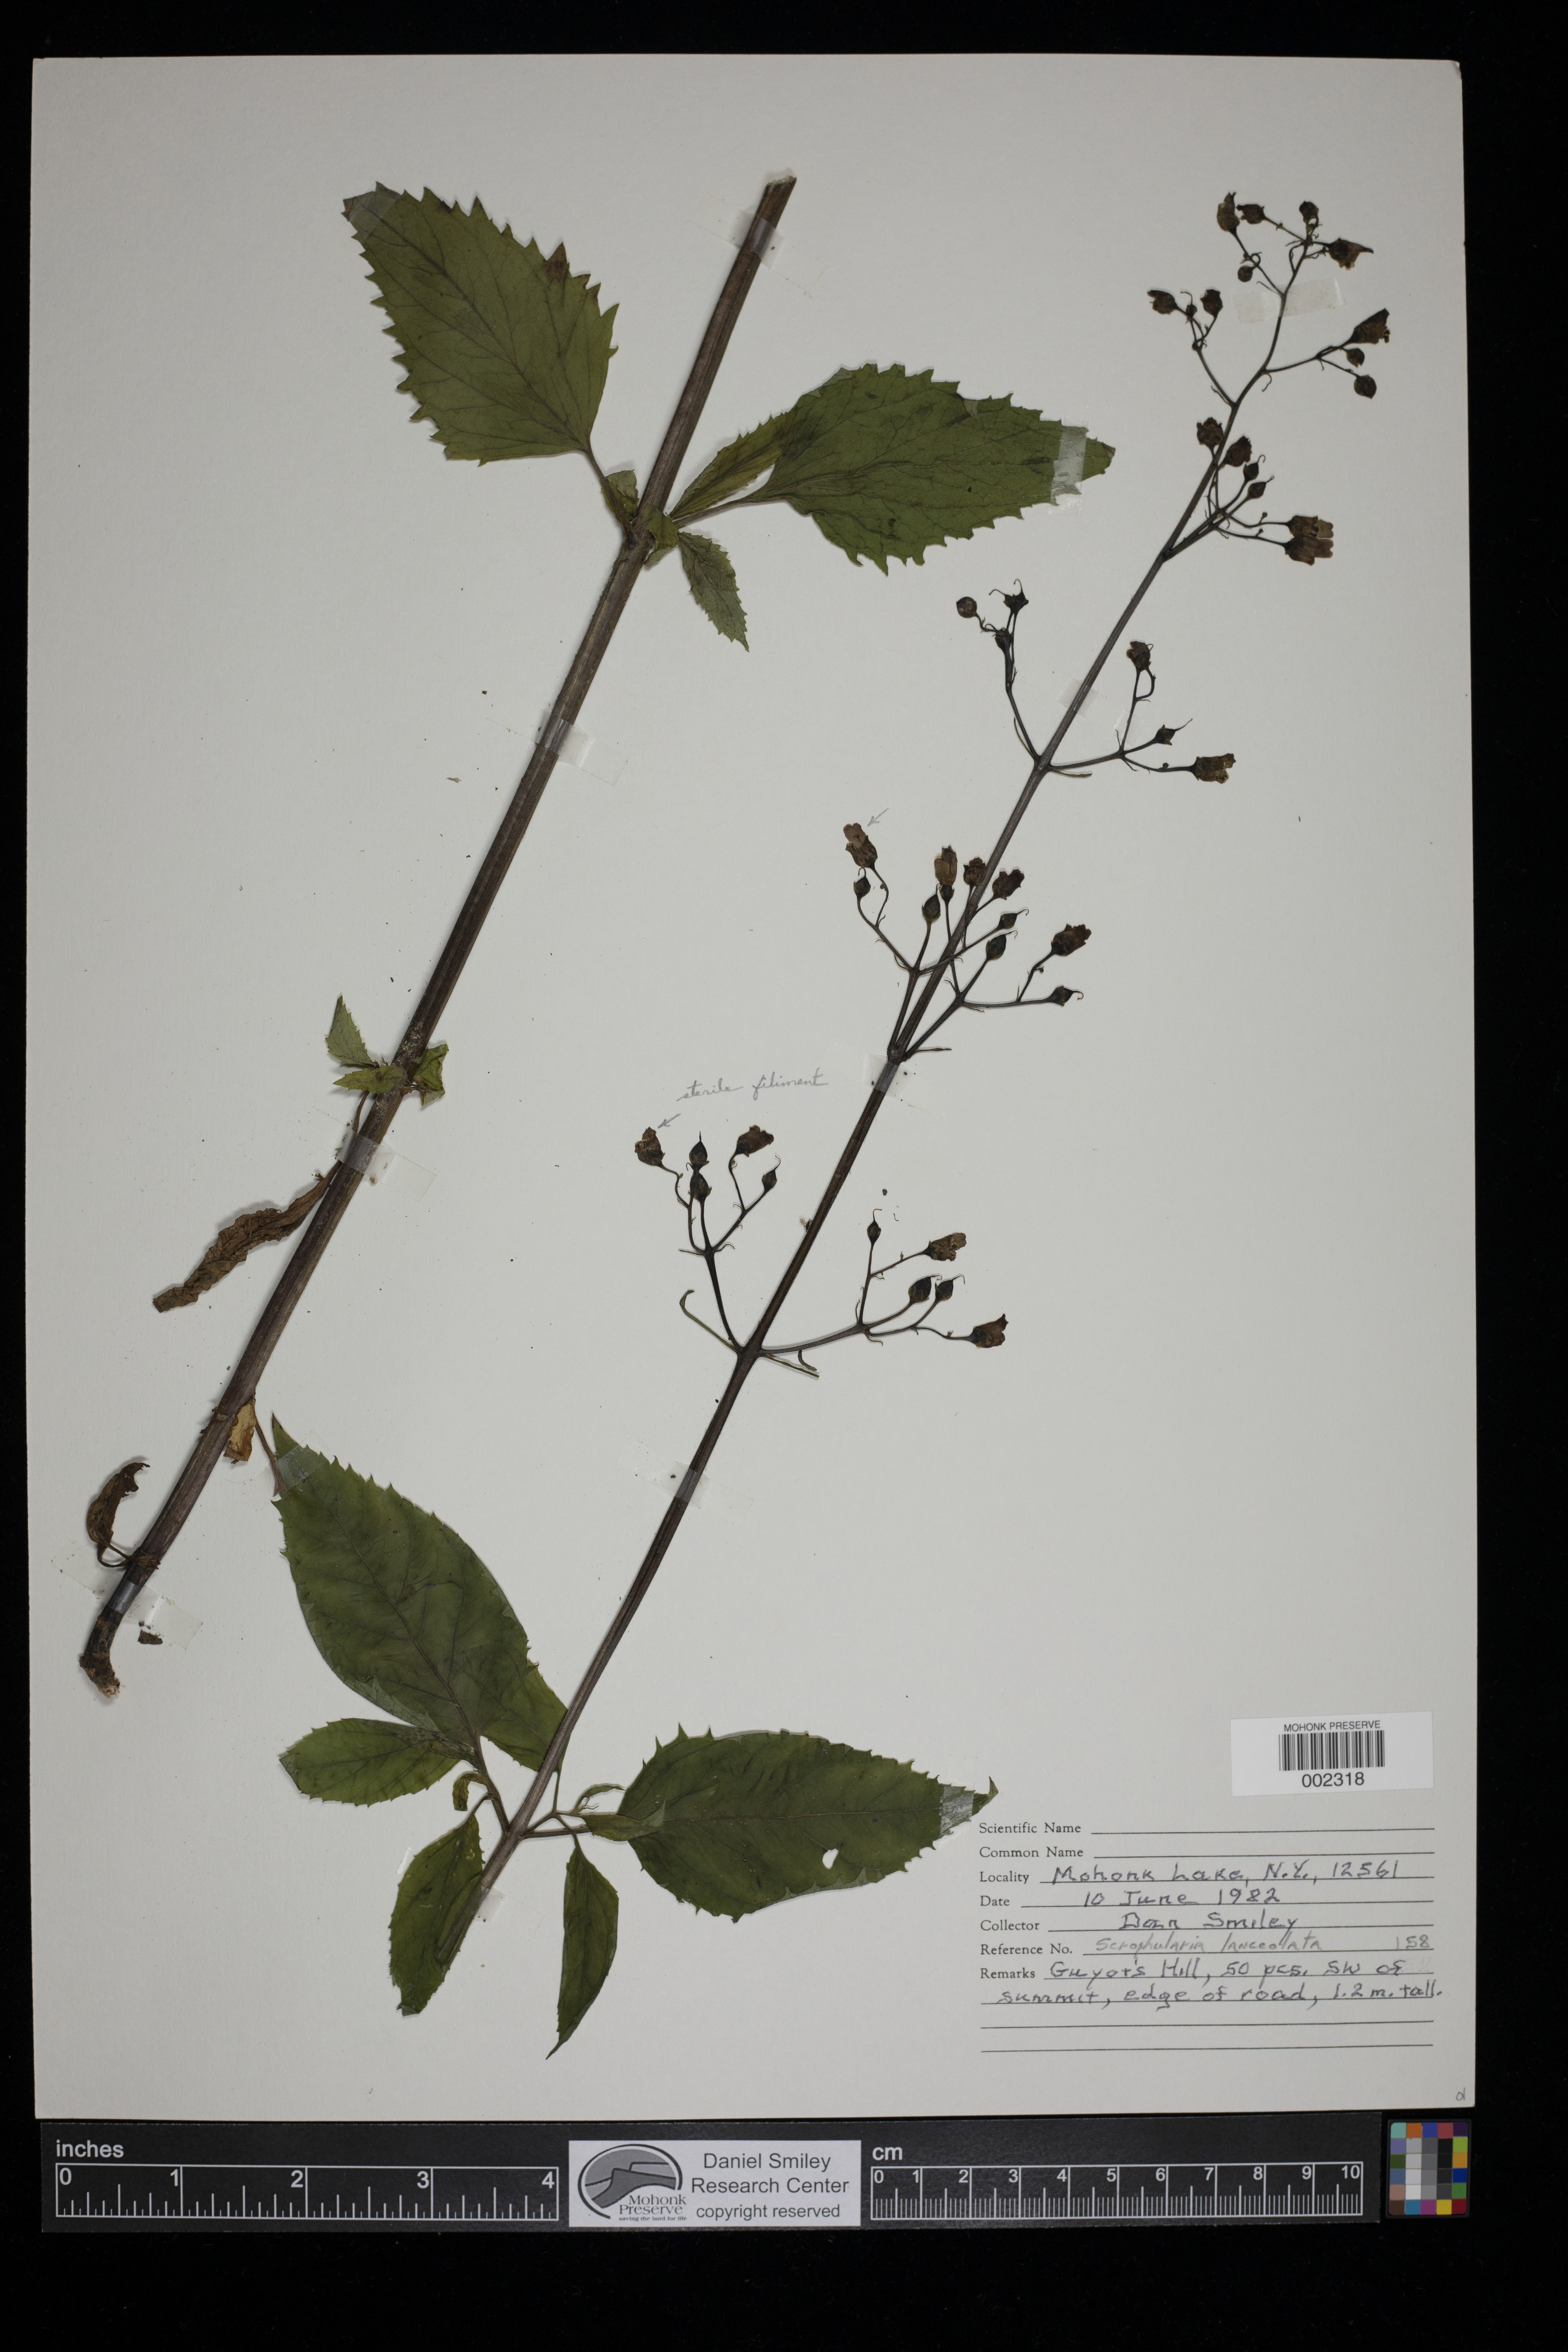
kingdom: Plantae
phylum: Tracheophyta
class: Magnoliopsida
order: Lamiales
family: Scrophulariaceae
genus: Scrophularia
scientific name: Scrophularia lanceolata
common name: American figwort
